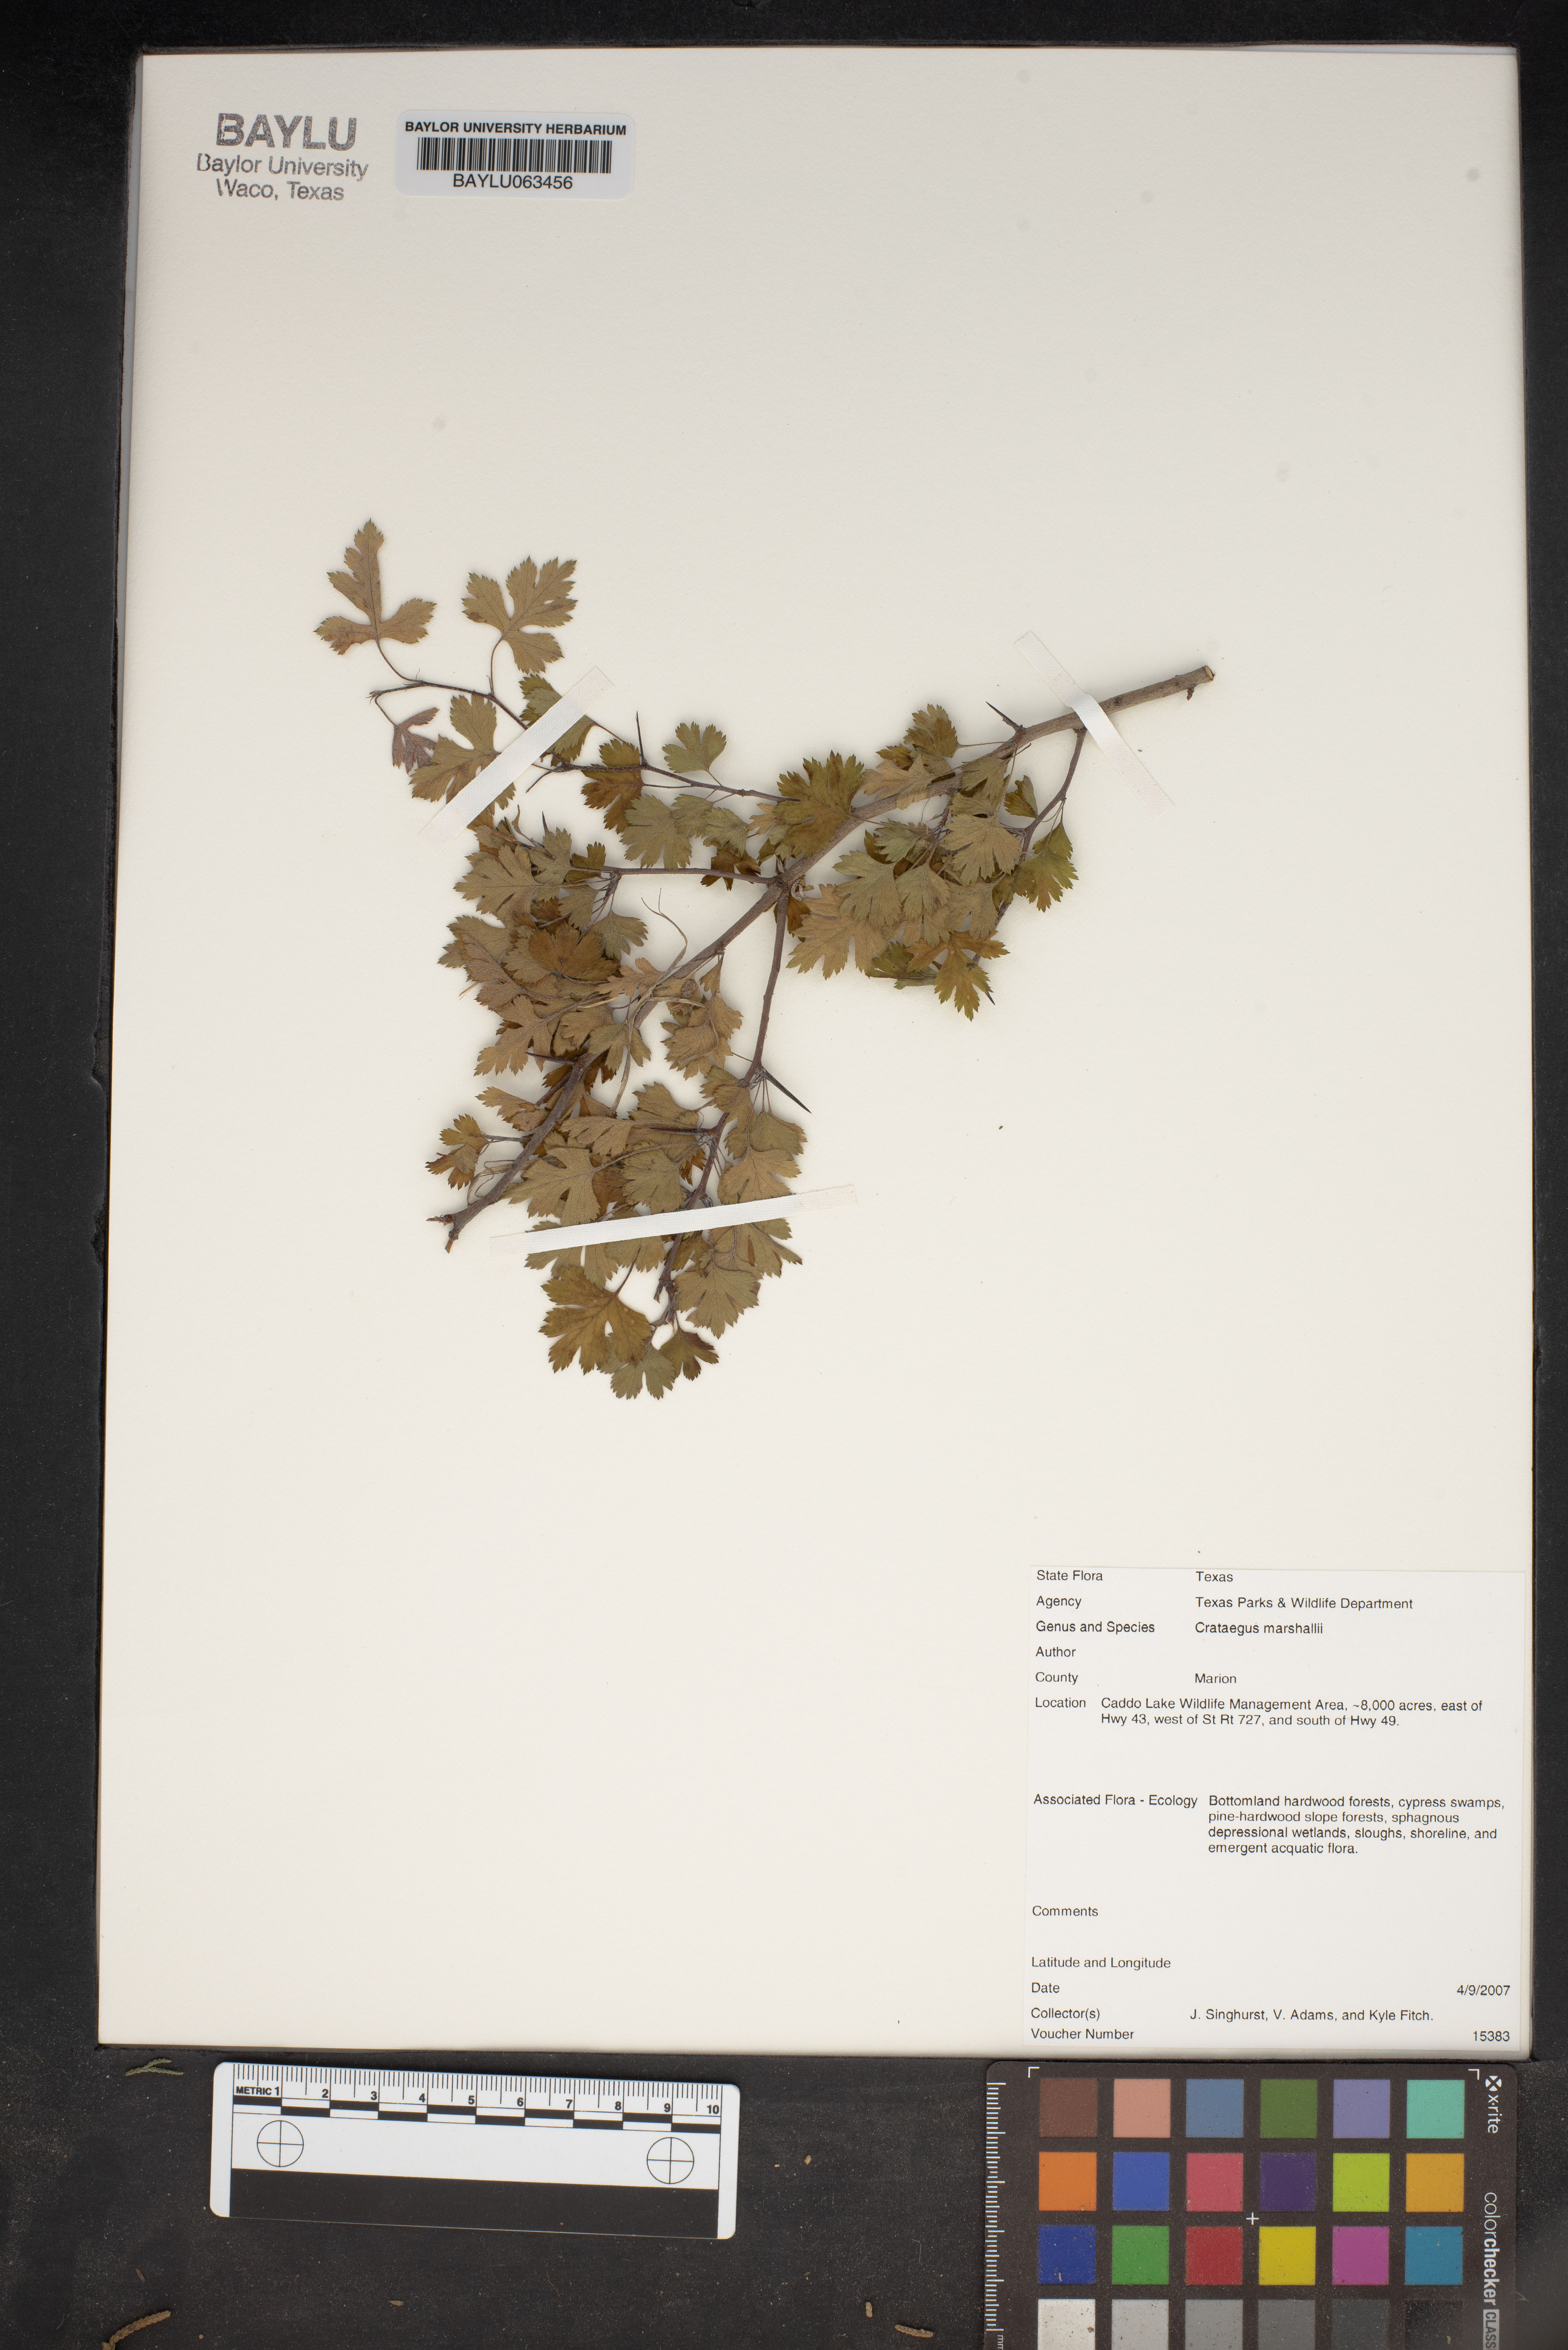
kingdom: Plantae
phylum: Tracheophyta
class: Magnoliopsida
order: Rosales
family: Rosaceae
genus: Crataegus
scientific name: Crataegus marshallii
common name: Parsley-hawthorn
